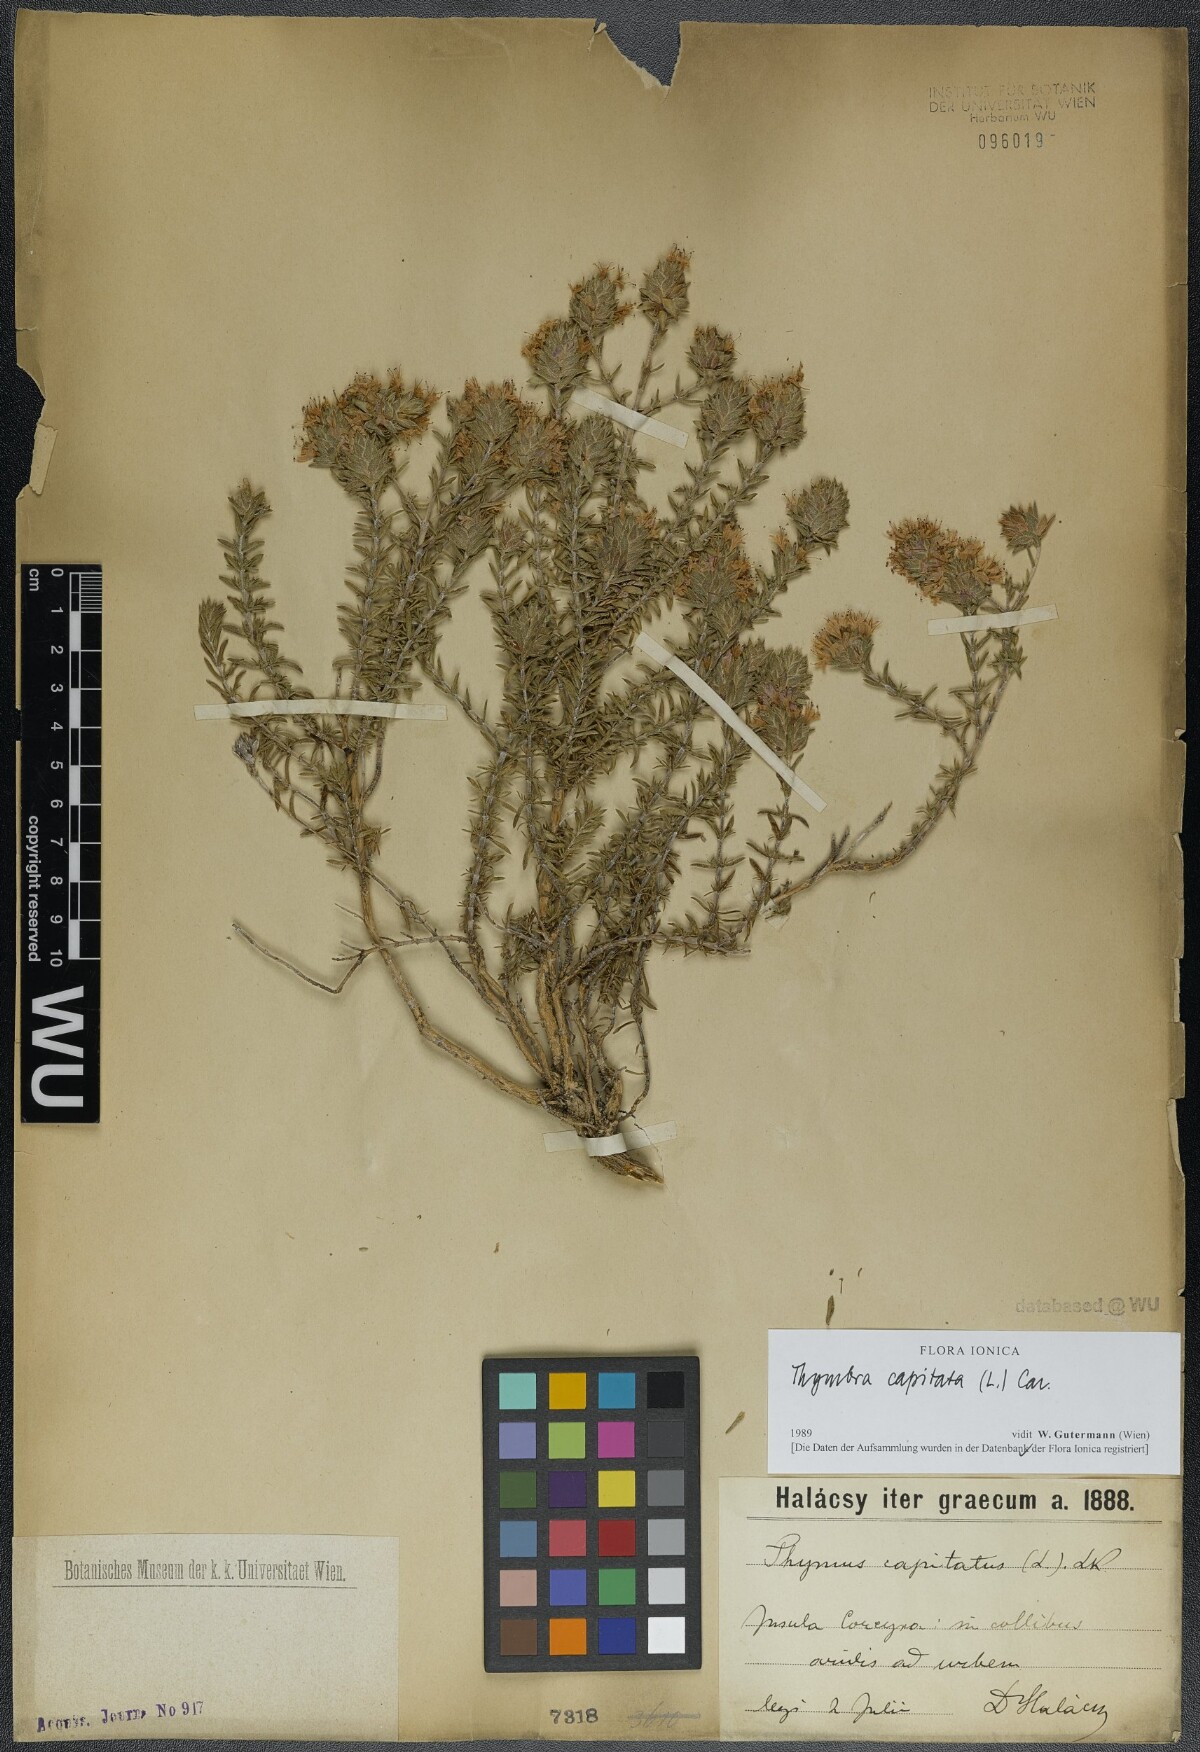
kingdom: Plantae
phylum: Tracheophyta
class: Magnoliopsida
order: Lamiales
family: Lamiaceae
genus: Thymbra
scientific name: Thymbra capitata
